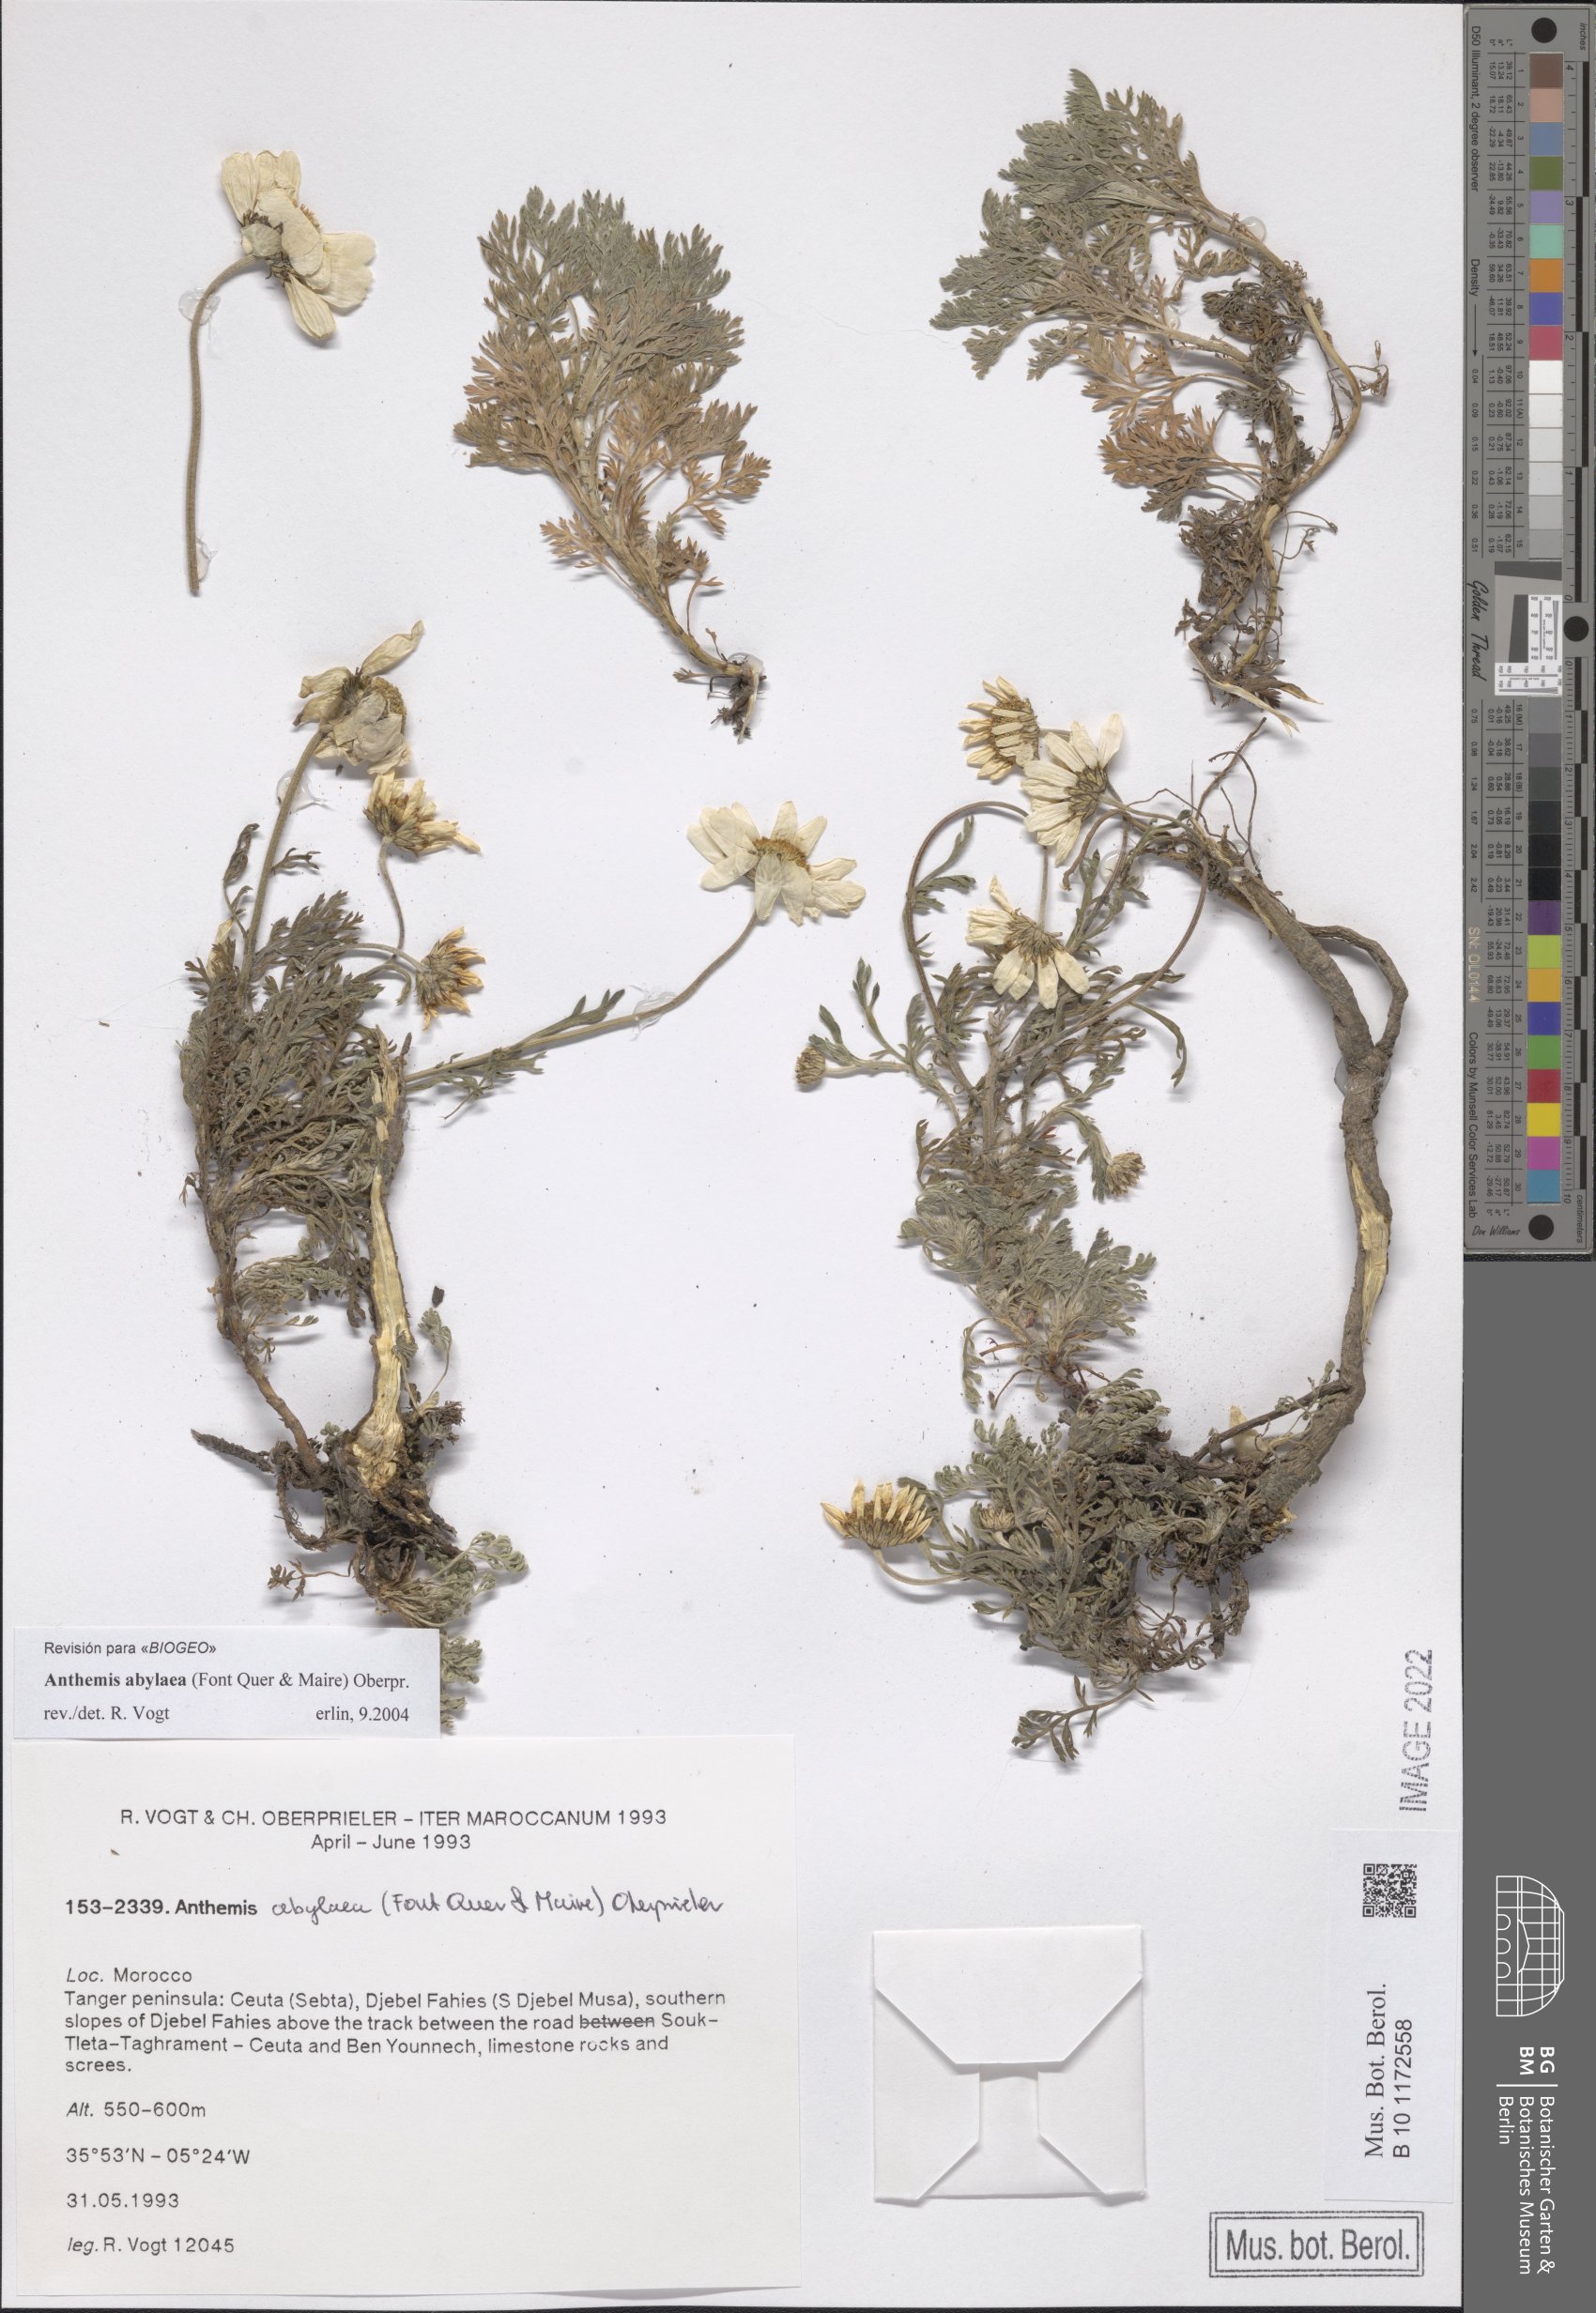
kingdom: Plantae
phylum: Tracheophyta
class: Magnoliopsida
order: Asterales
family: Asteraceae
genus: Anthemis
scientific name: Anthemis abylaea
